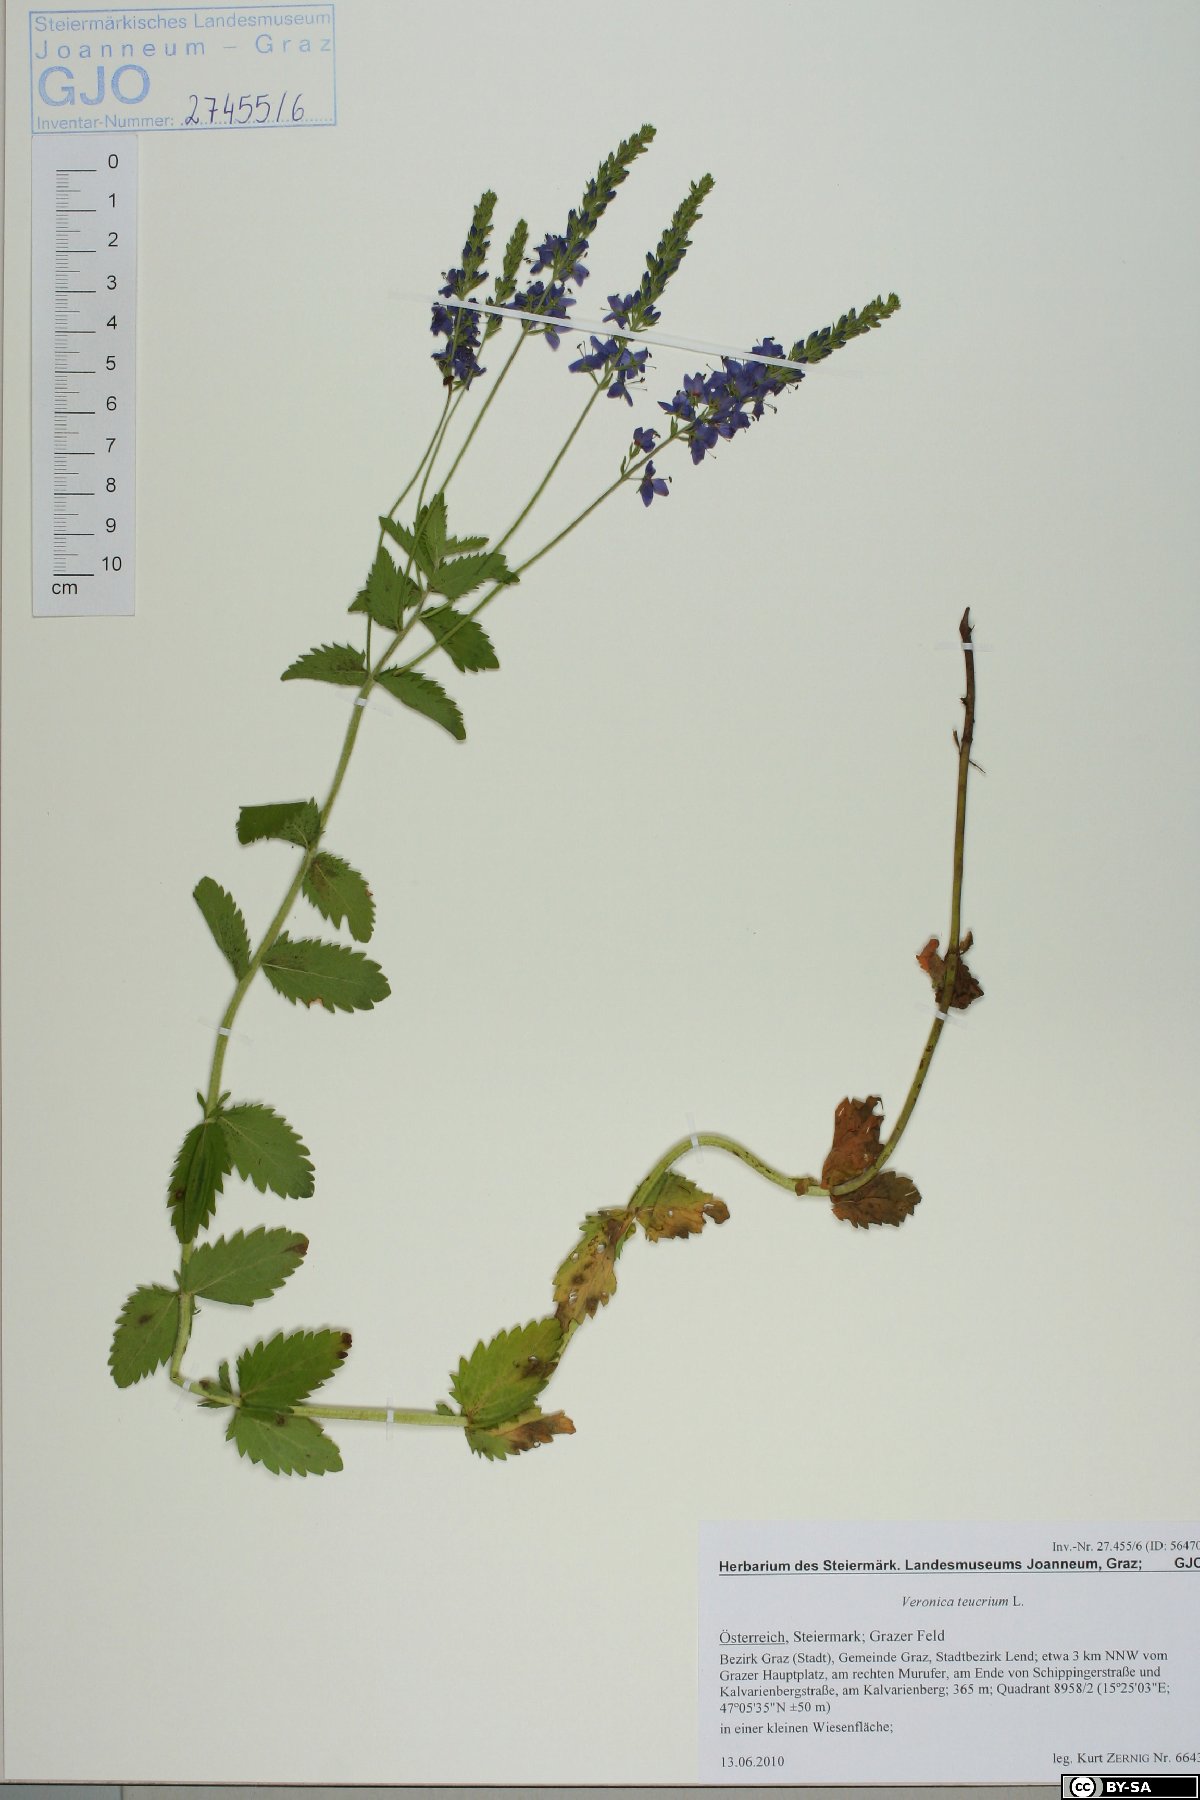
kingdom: Plantae
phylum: Tracheophyta
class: Magnoliopsida
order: Lamiales
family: Plantaginaceae
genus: Veronica
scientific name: Veronica teucrium
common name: Large speedwell
